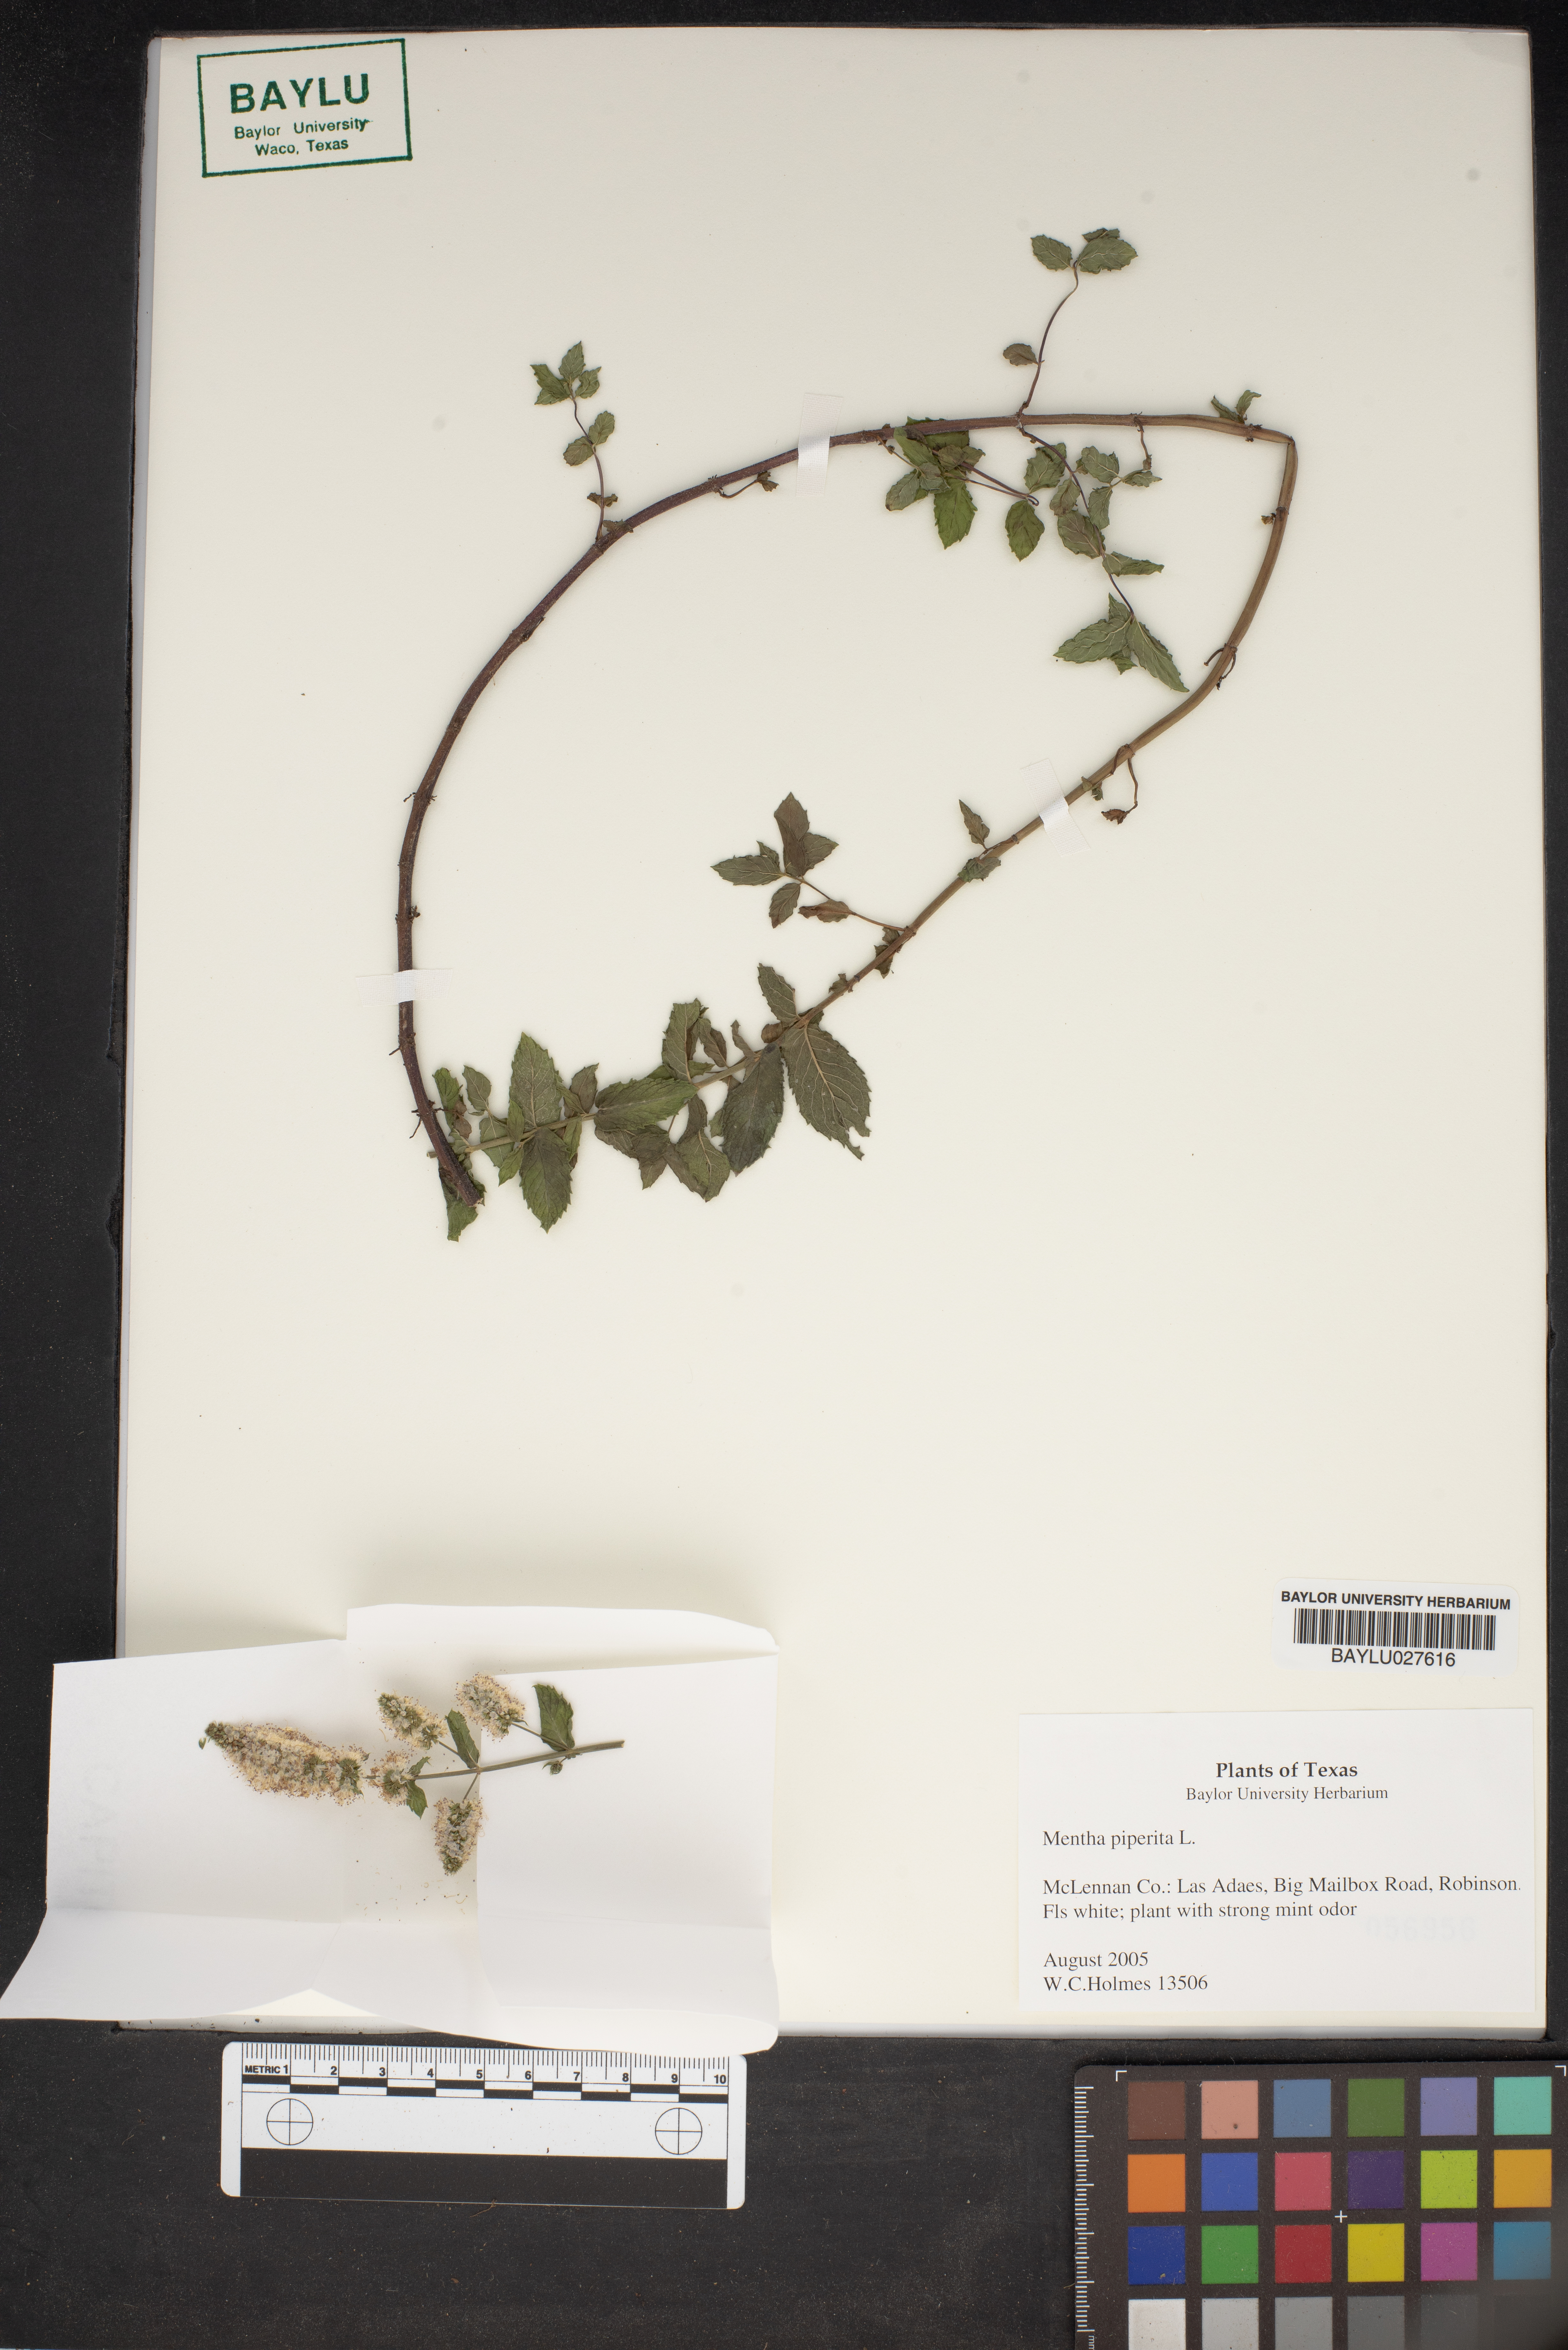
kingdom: Plantae
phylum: Tracheophyta
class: Magnoliopsida
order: Lamiales
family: Lamiaceae
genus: Mentha
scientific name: Mentha piperita
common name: Peppermint
